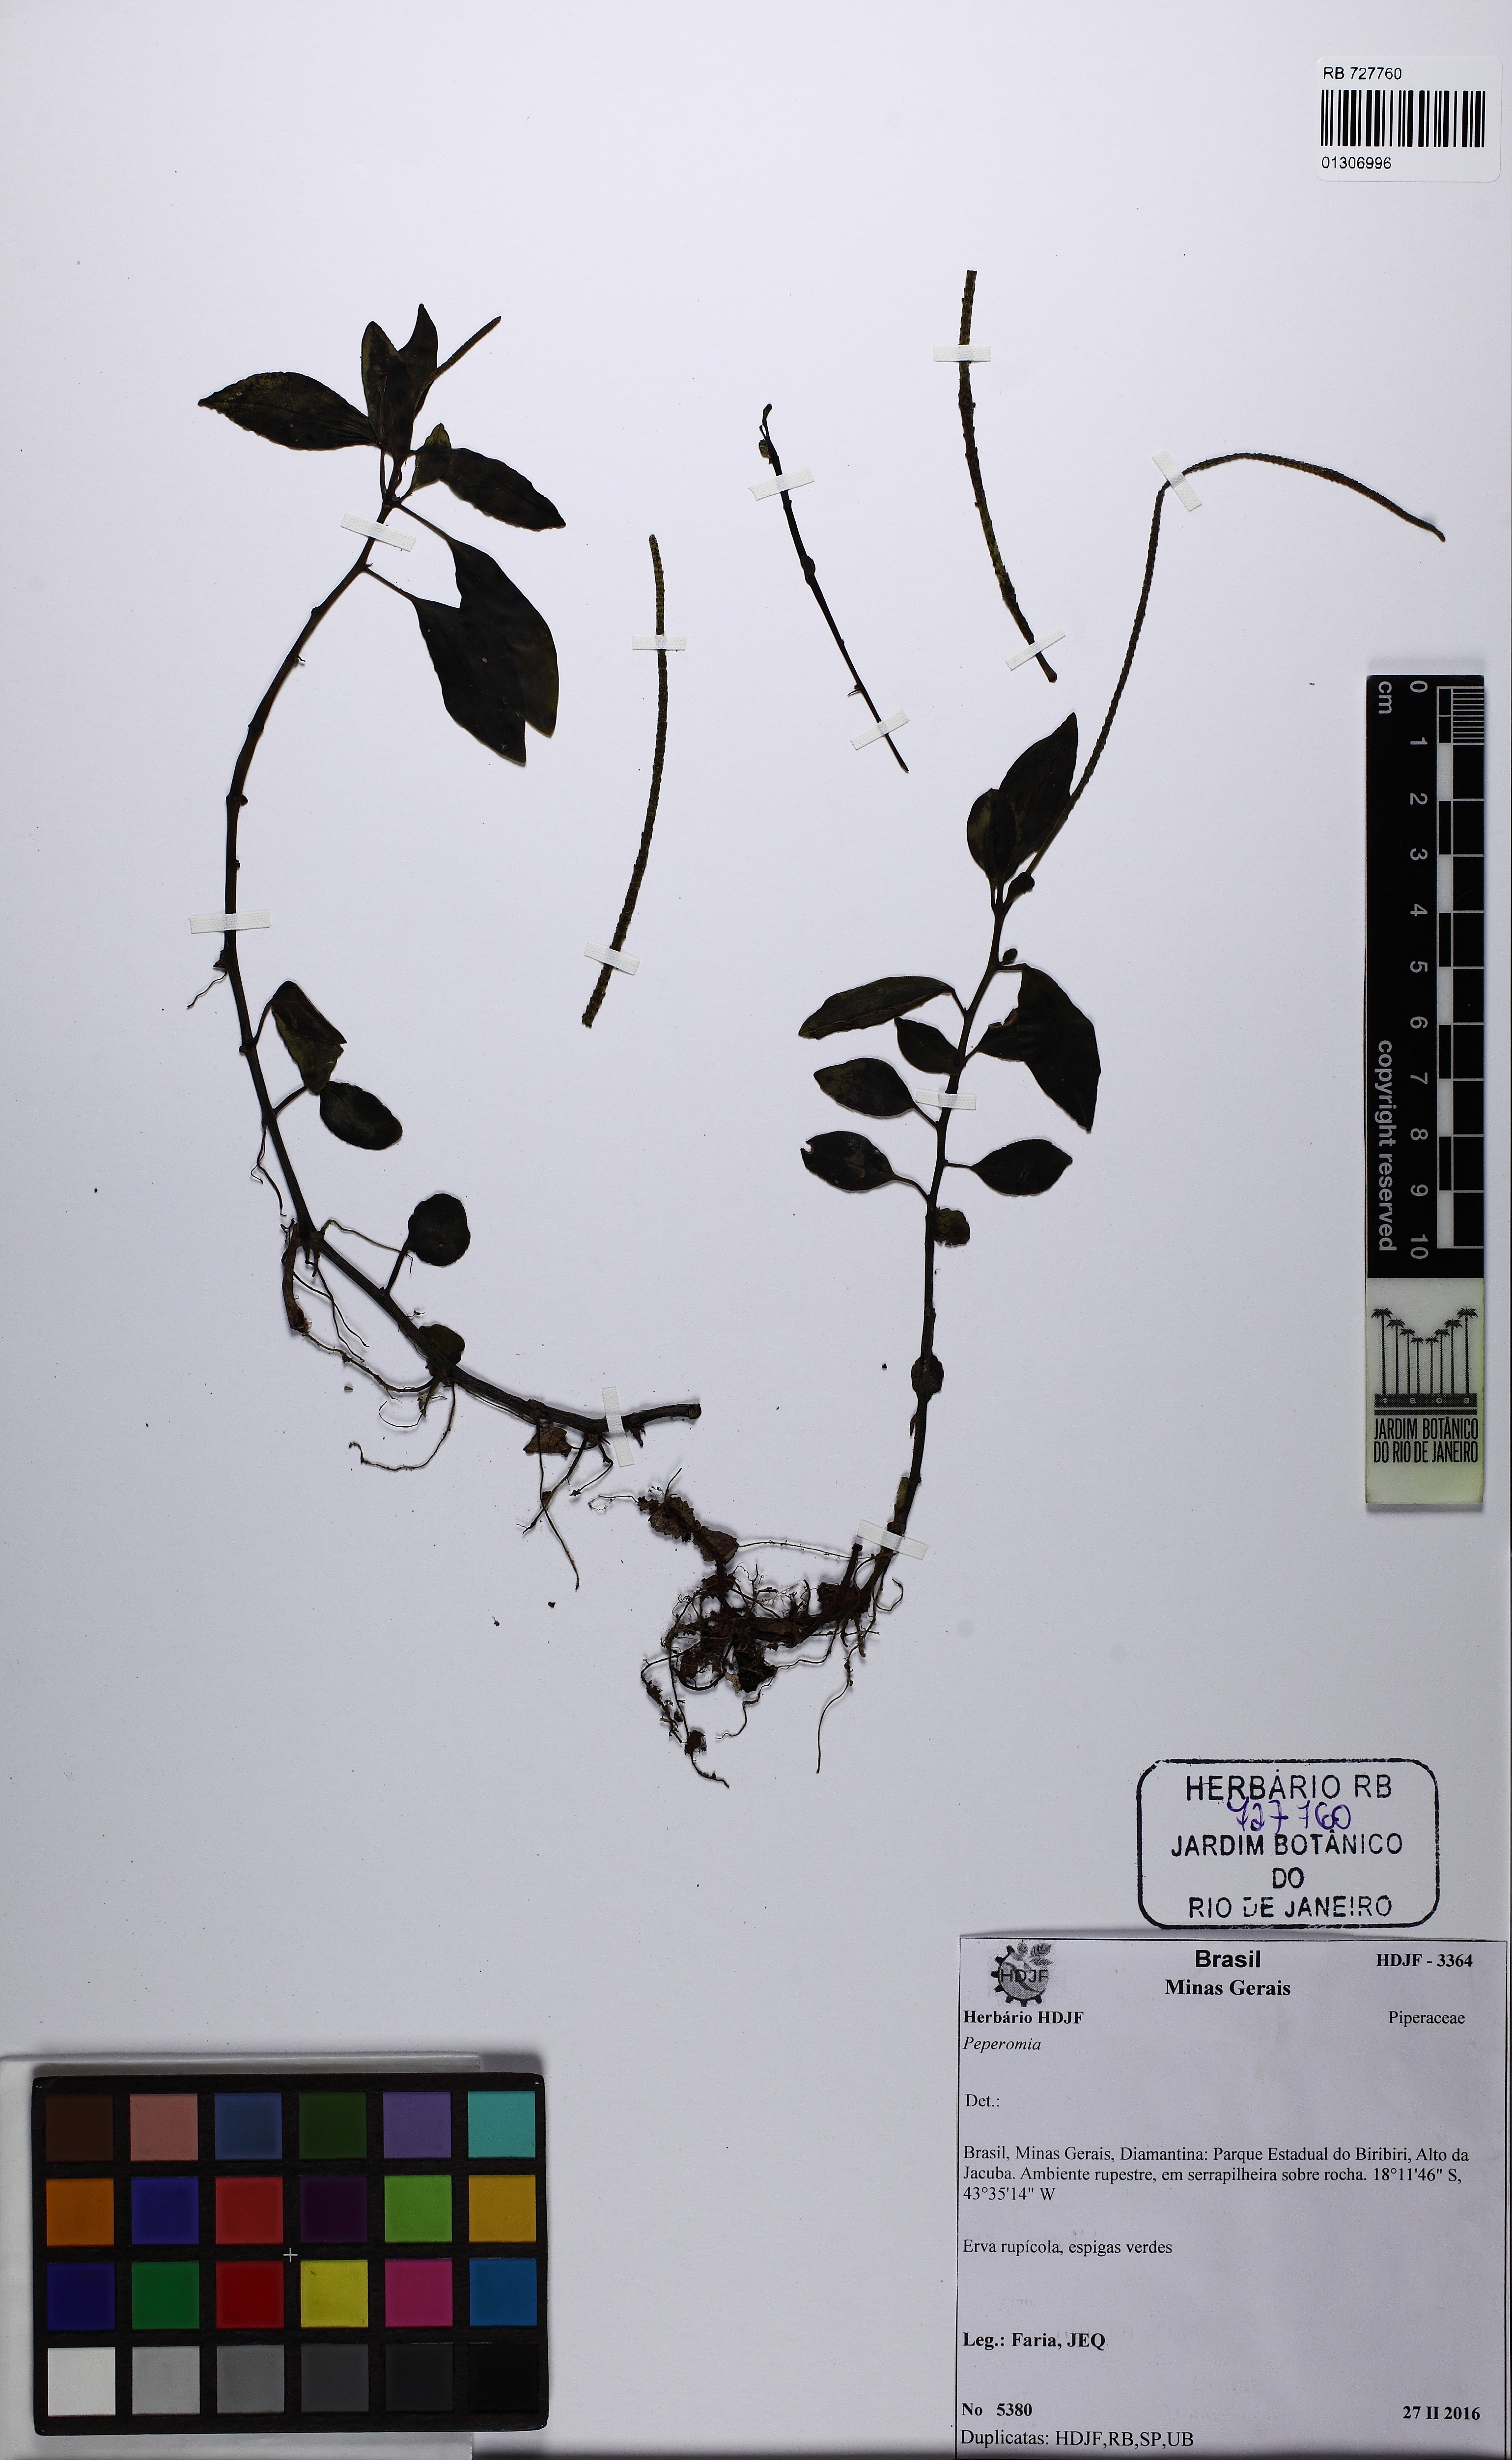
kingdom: Plantae
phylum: Tracheophyta
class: Magnoliopsida
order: Piperales
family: Piperaceae
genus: Peperomia
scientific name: Peperomia subrubricaulis
